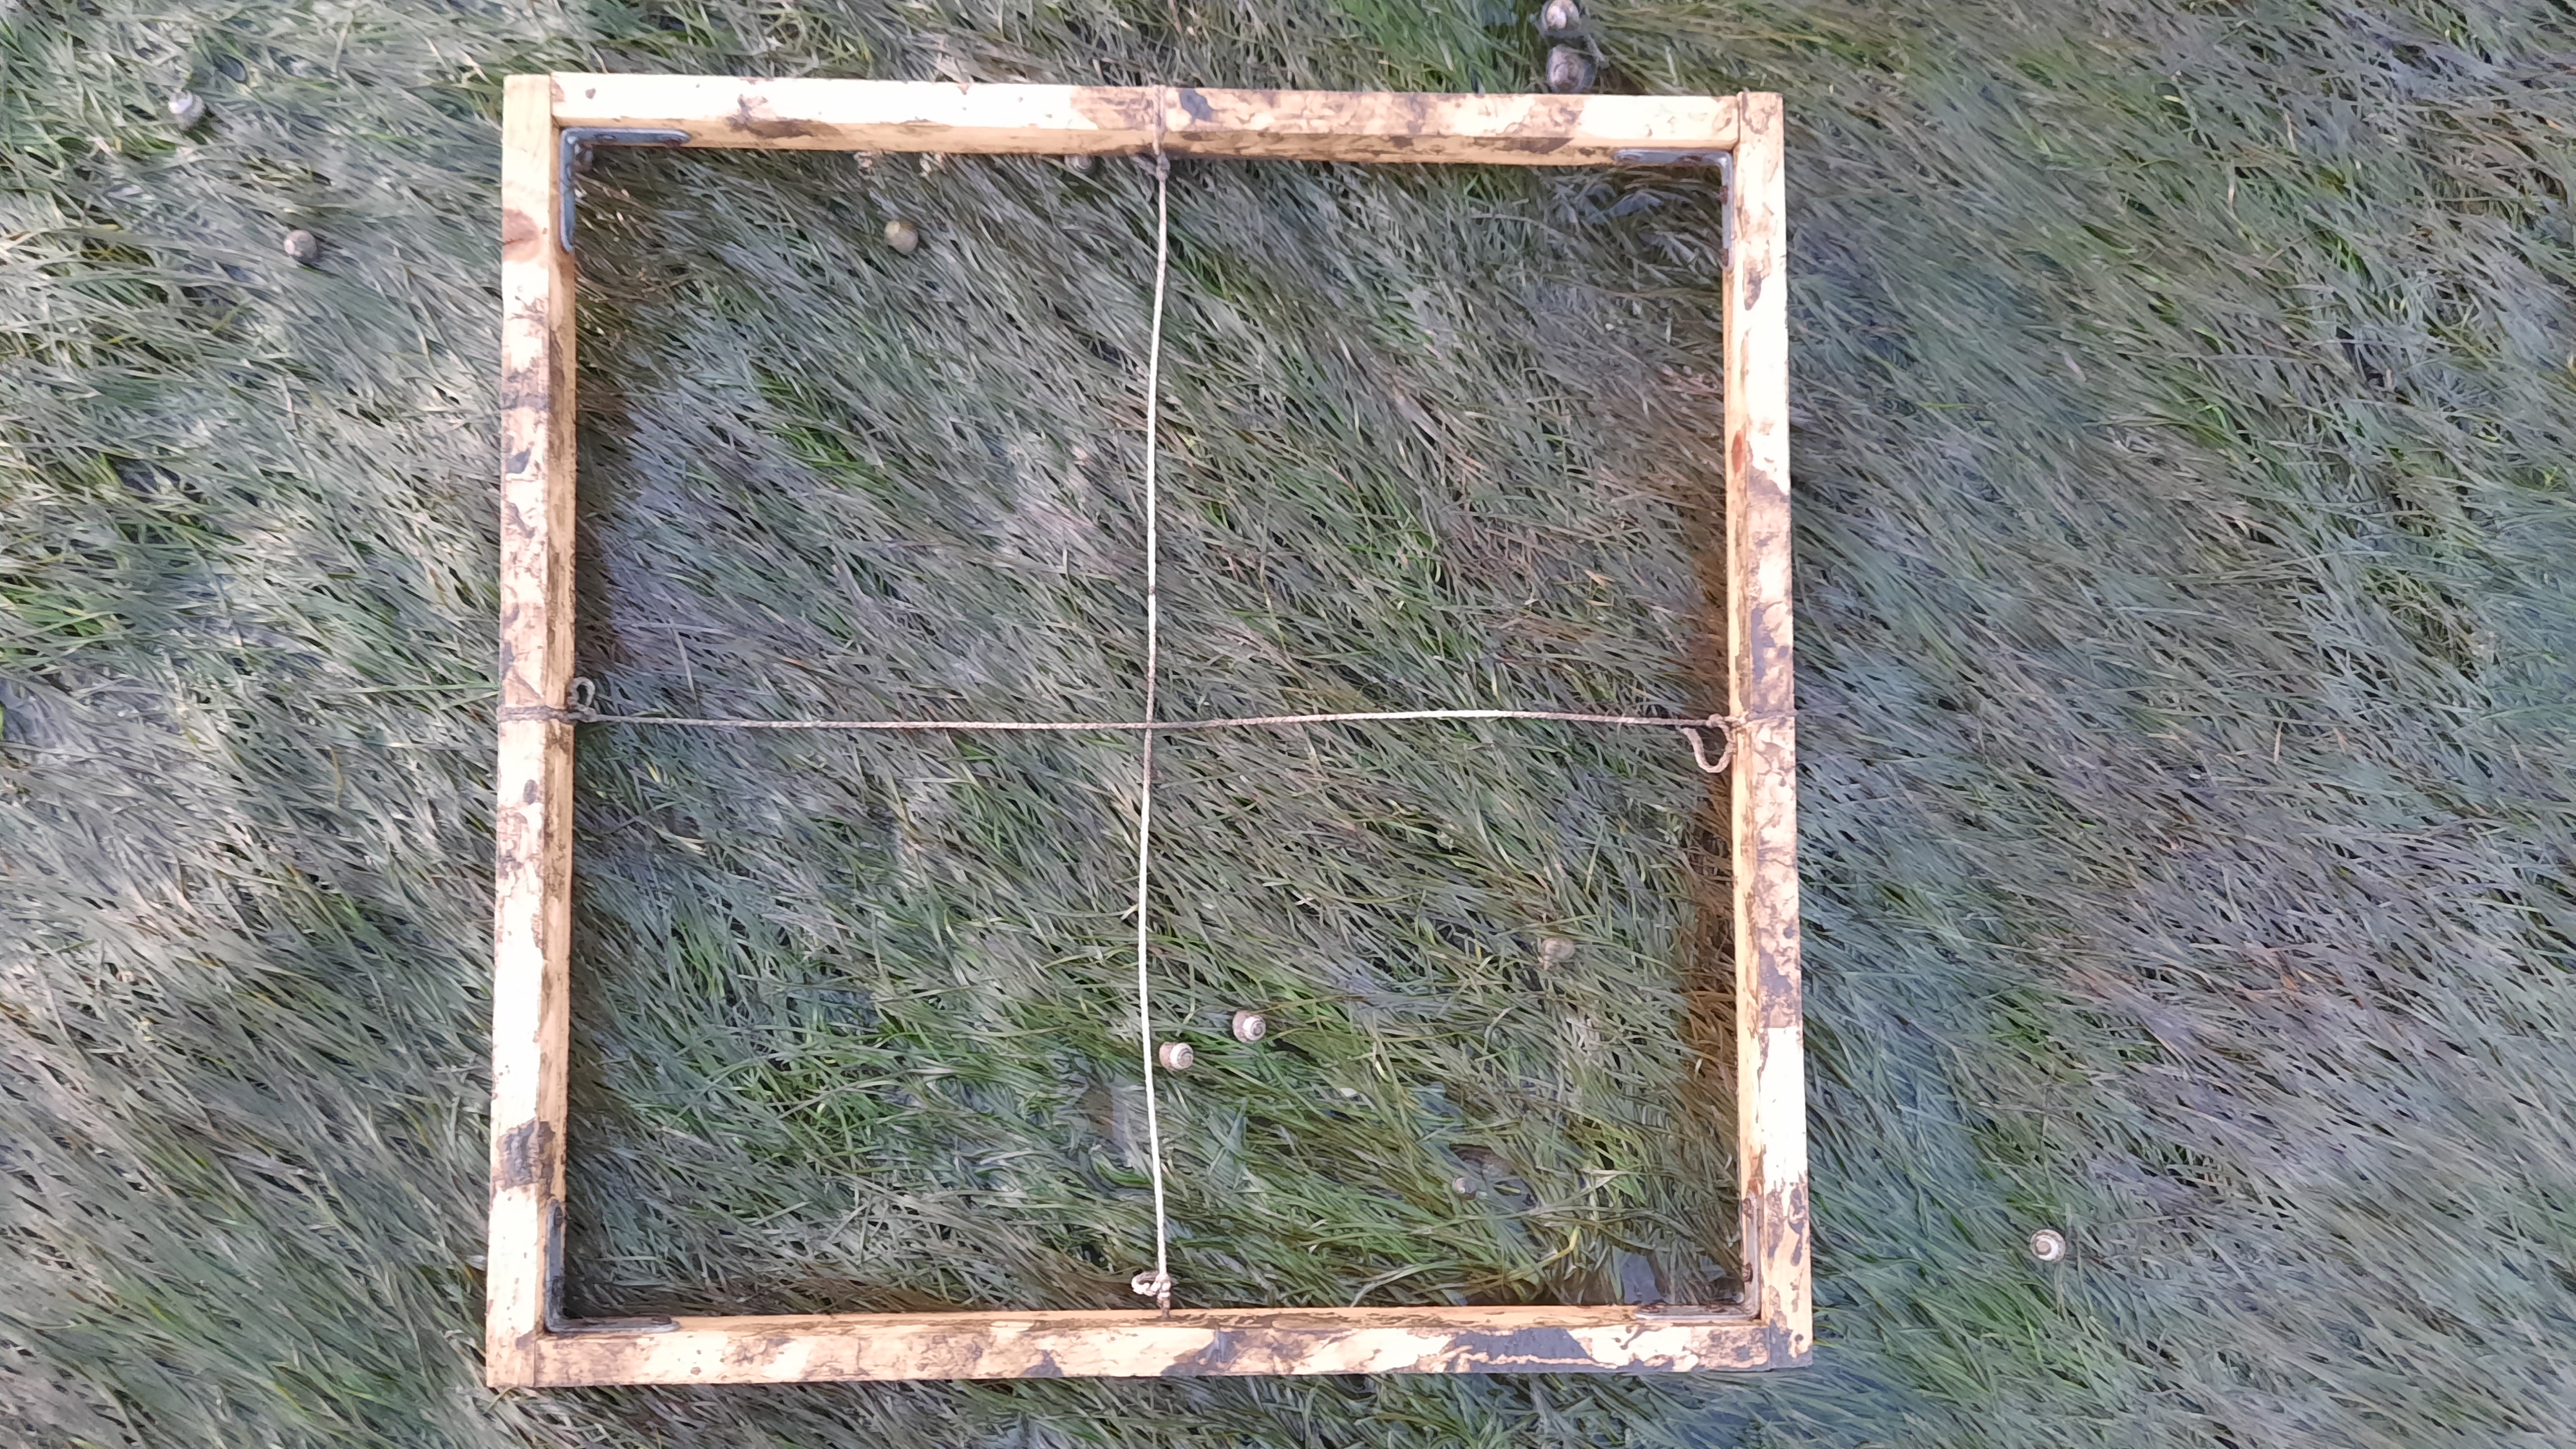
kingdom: Plantae
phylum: Tracheophyta
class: Liliopsida
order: Alismatales
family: Zosteraceae
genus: Zostera
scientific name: Zostera noltii
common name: Dwarf eelgrass
